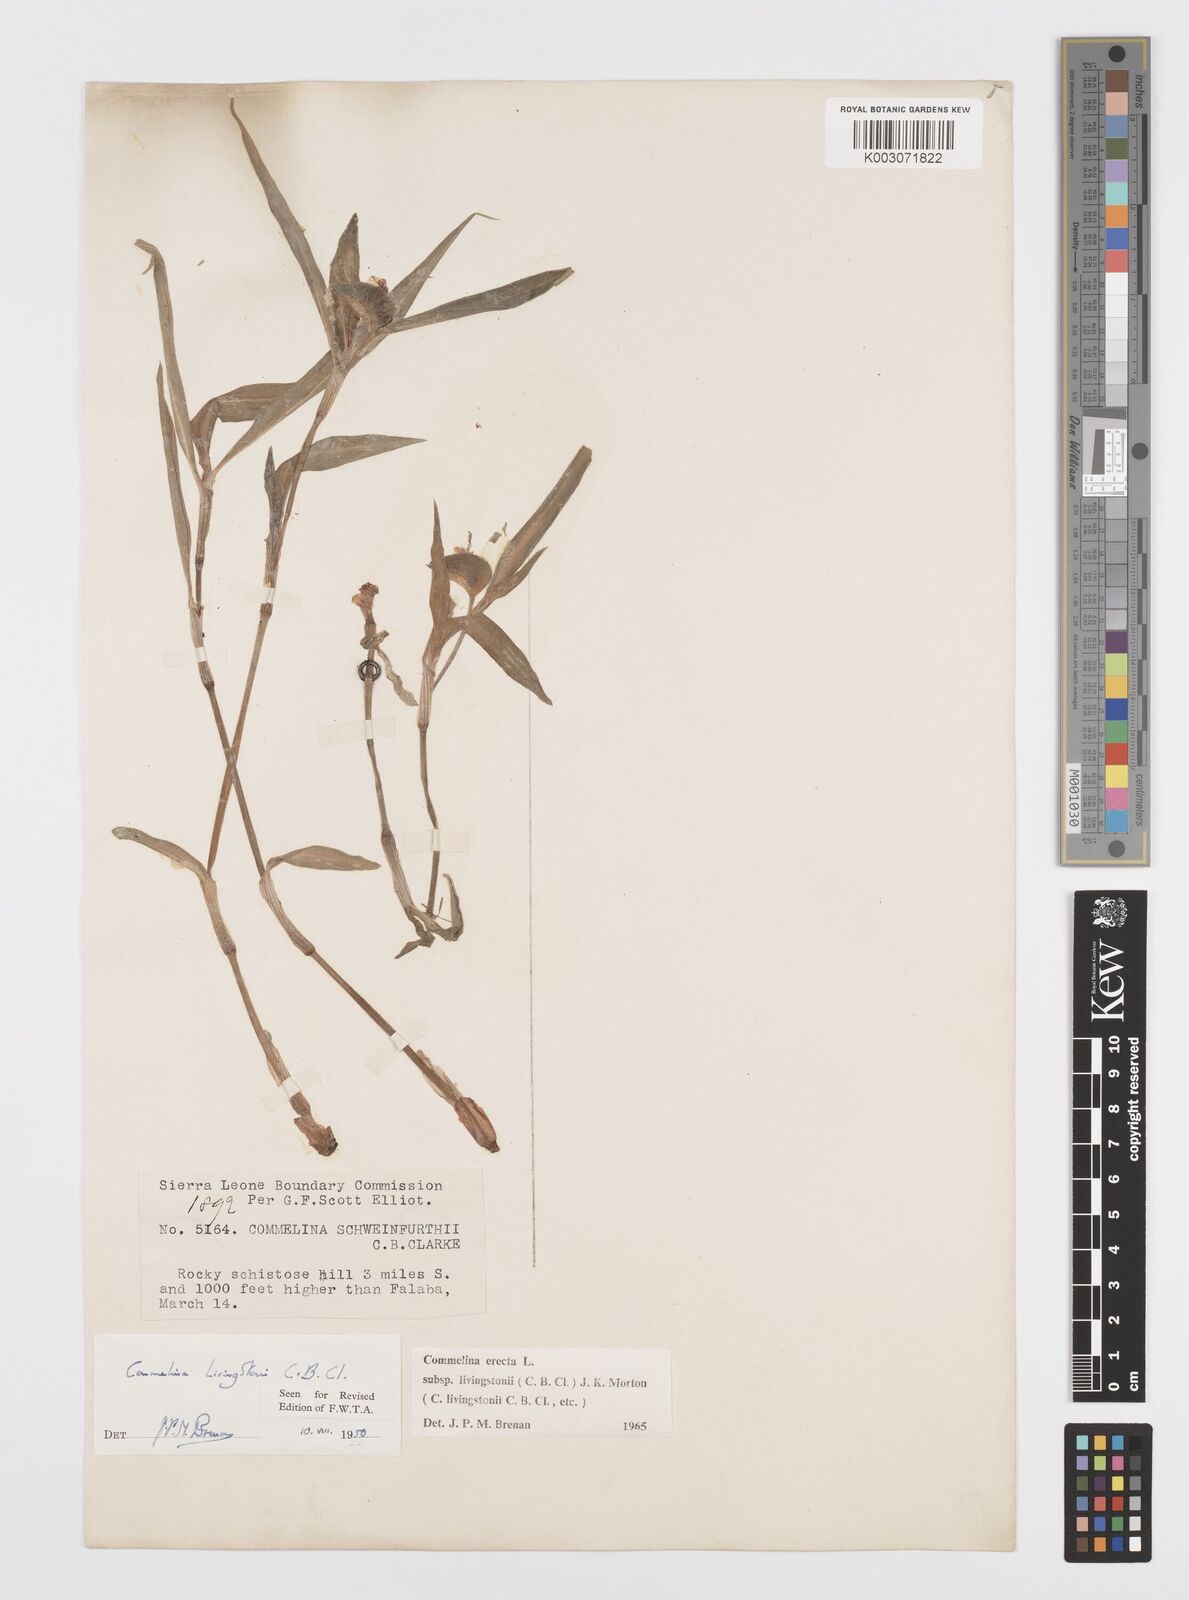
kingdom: Plantae
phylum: Tracheophyta
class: Liliopsida
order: Commelinales
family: Commelinaceae
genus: Commelina
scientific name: Commelina erecta
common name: Blousel blommetjie
